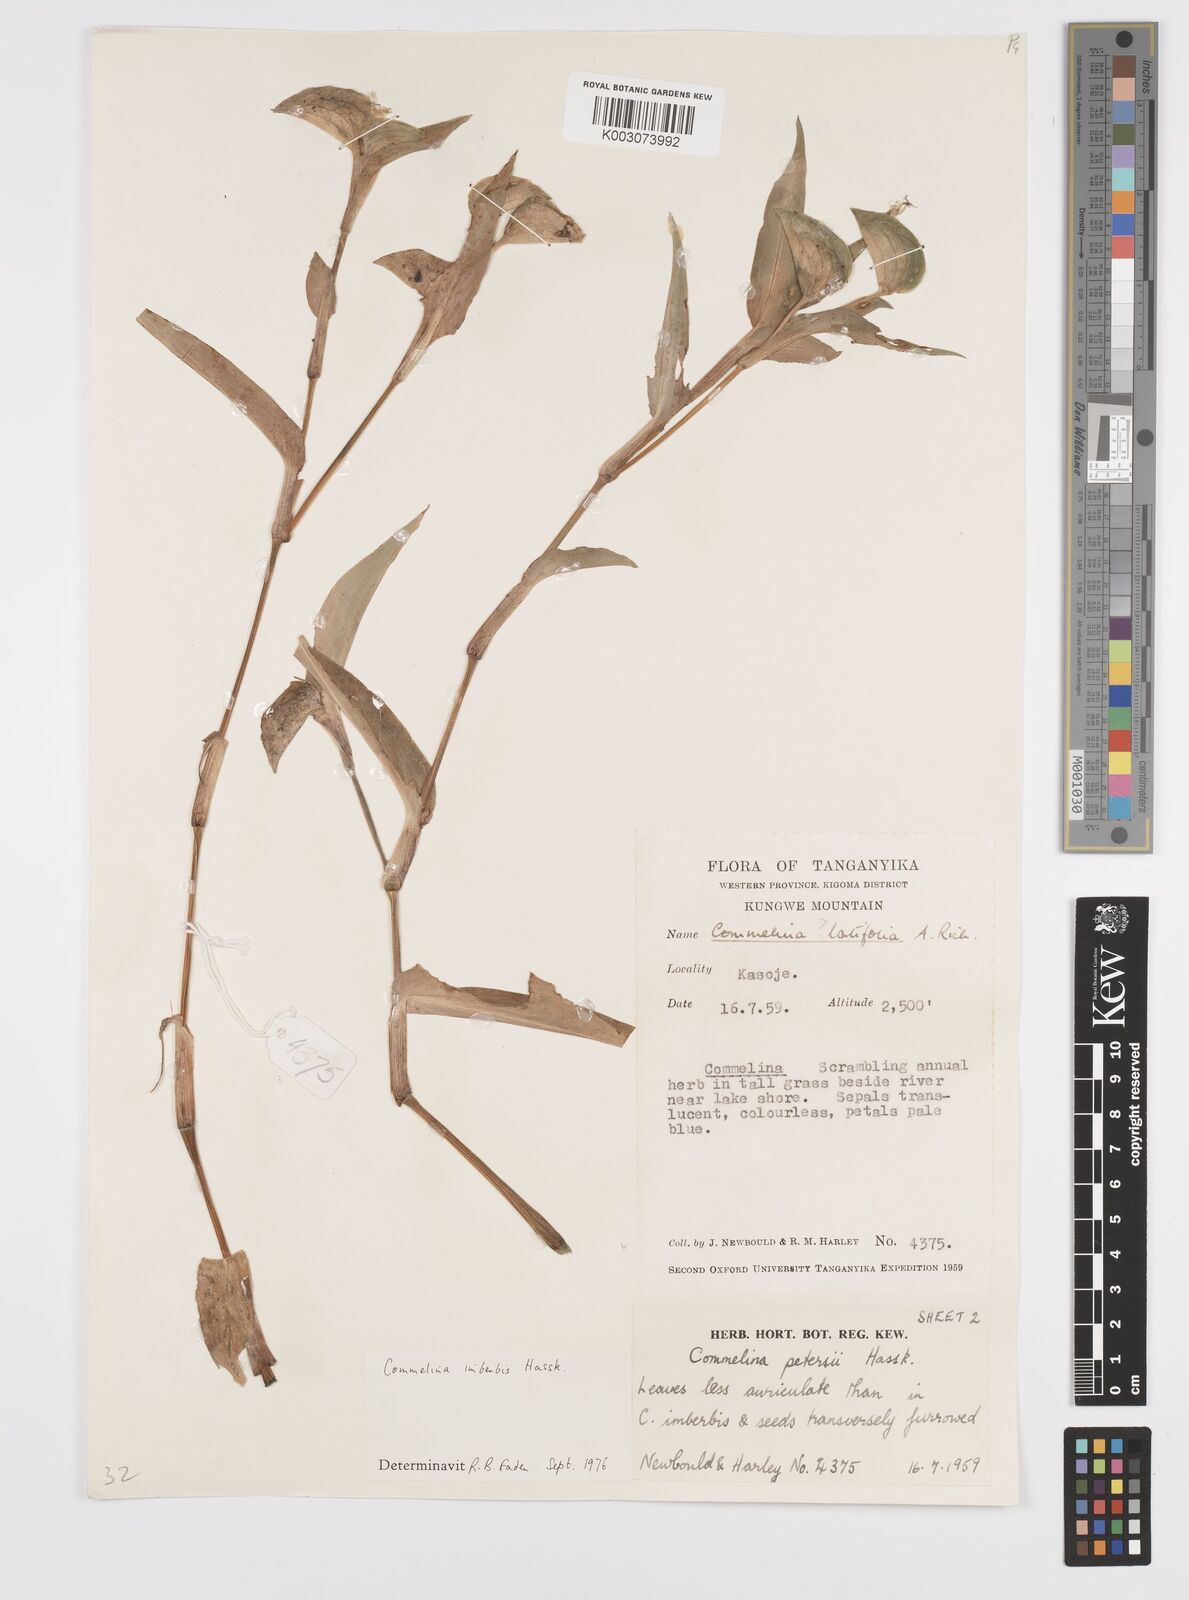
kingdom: Plantae
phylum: Tracheophyta
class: Liliopsida
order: Commelinales
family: Commelinaceae
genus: Commelina
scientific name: Commelina imberbis
